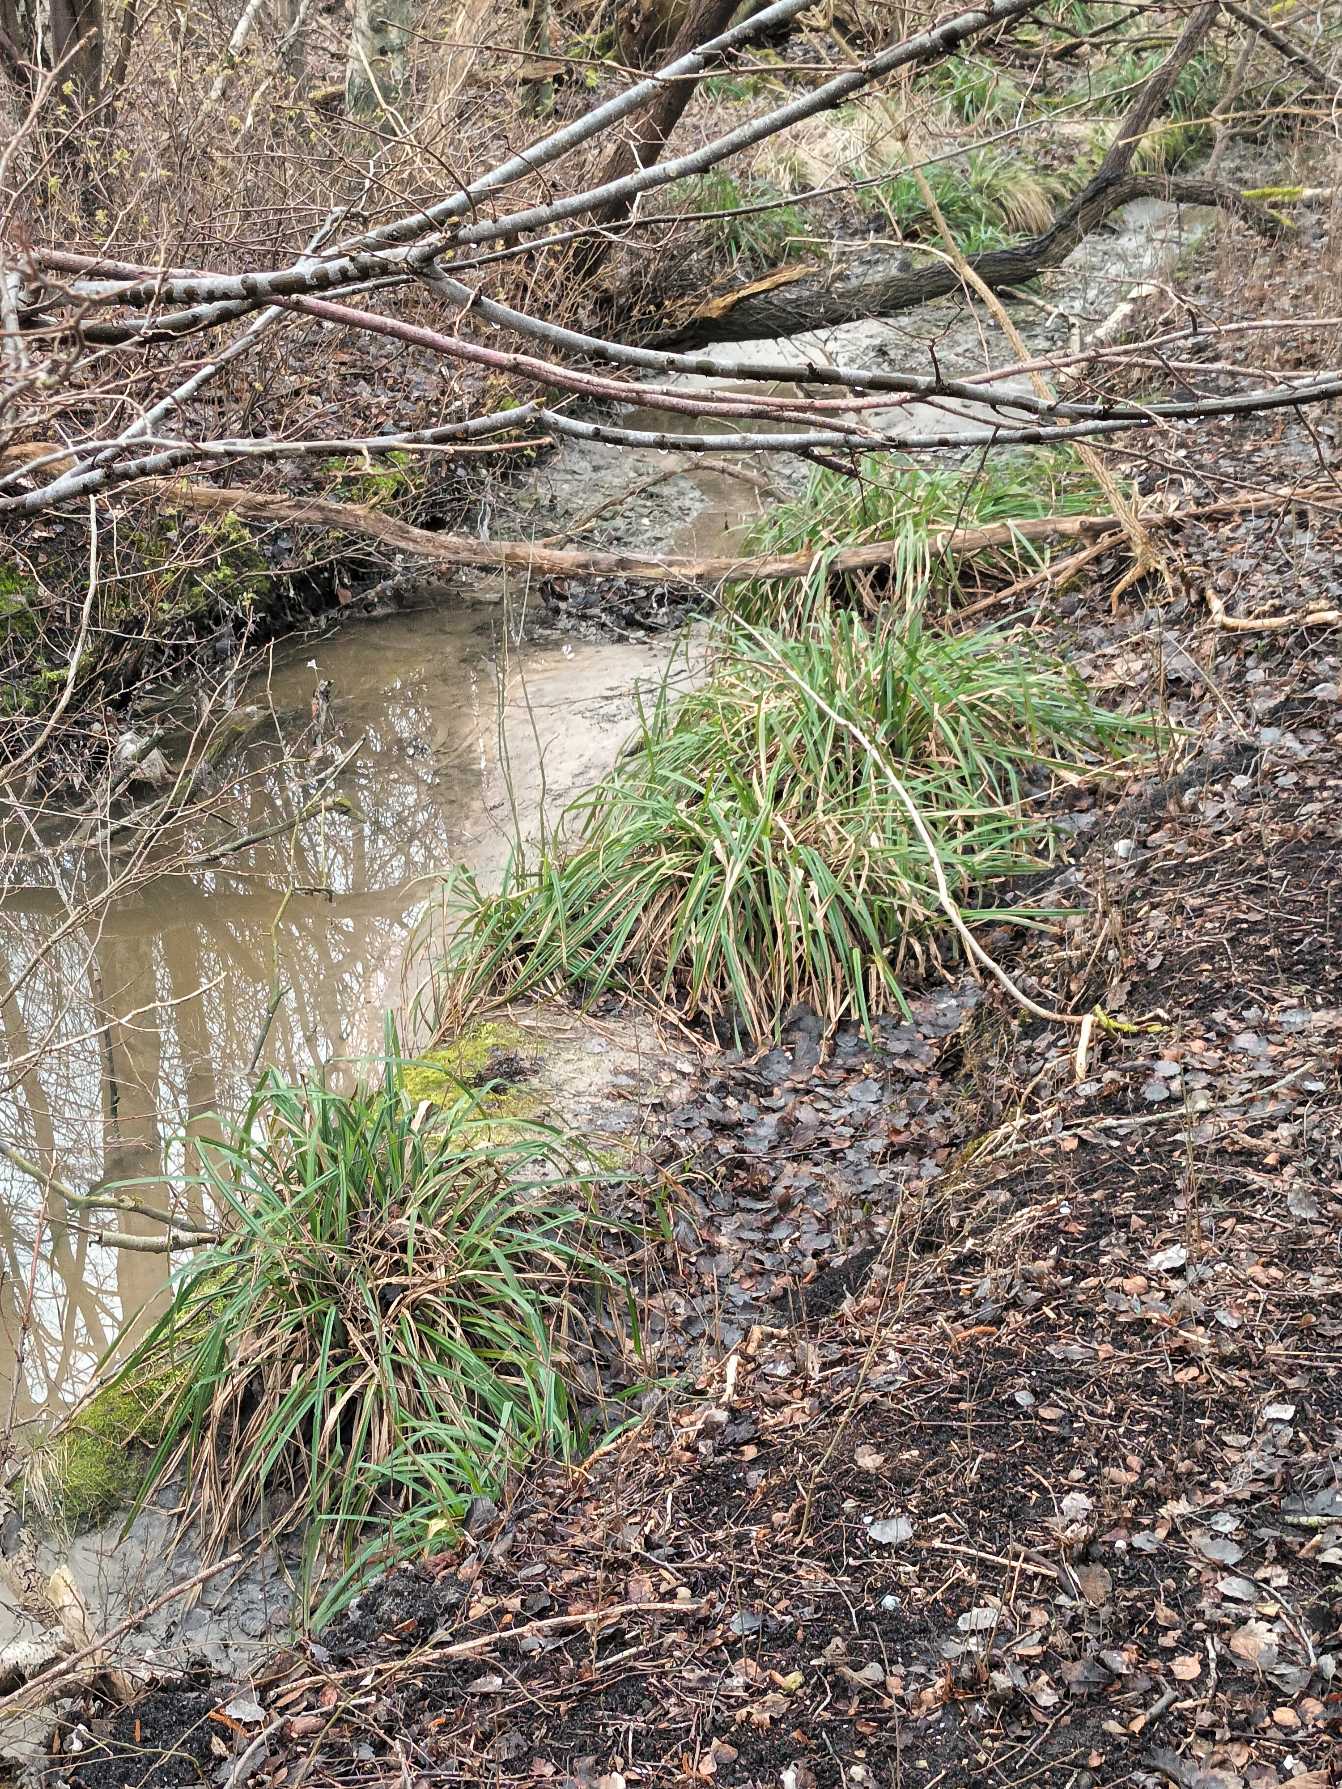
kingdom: Plantae
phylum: Tracheophyta
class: Liliopsida
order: Poales
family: Cyperaceae
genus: Carex
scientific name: Carex pendula
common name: Kæmpe-star
